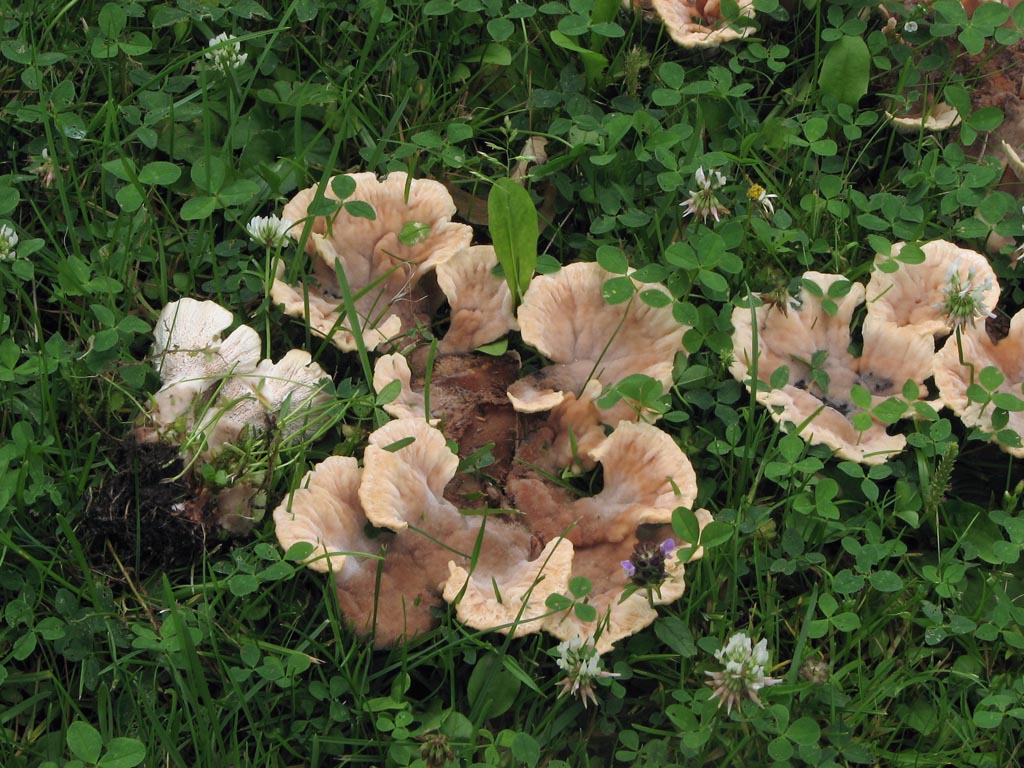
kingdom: Fungi
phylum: Basidiomycota
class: Agaricomycetes
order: Polyporales
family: Podoscyphaceae
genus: Abortiporus
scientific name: Abortiporus biennis
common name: rødmende pjalteporesvamp
